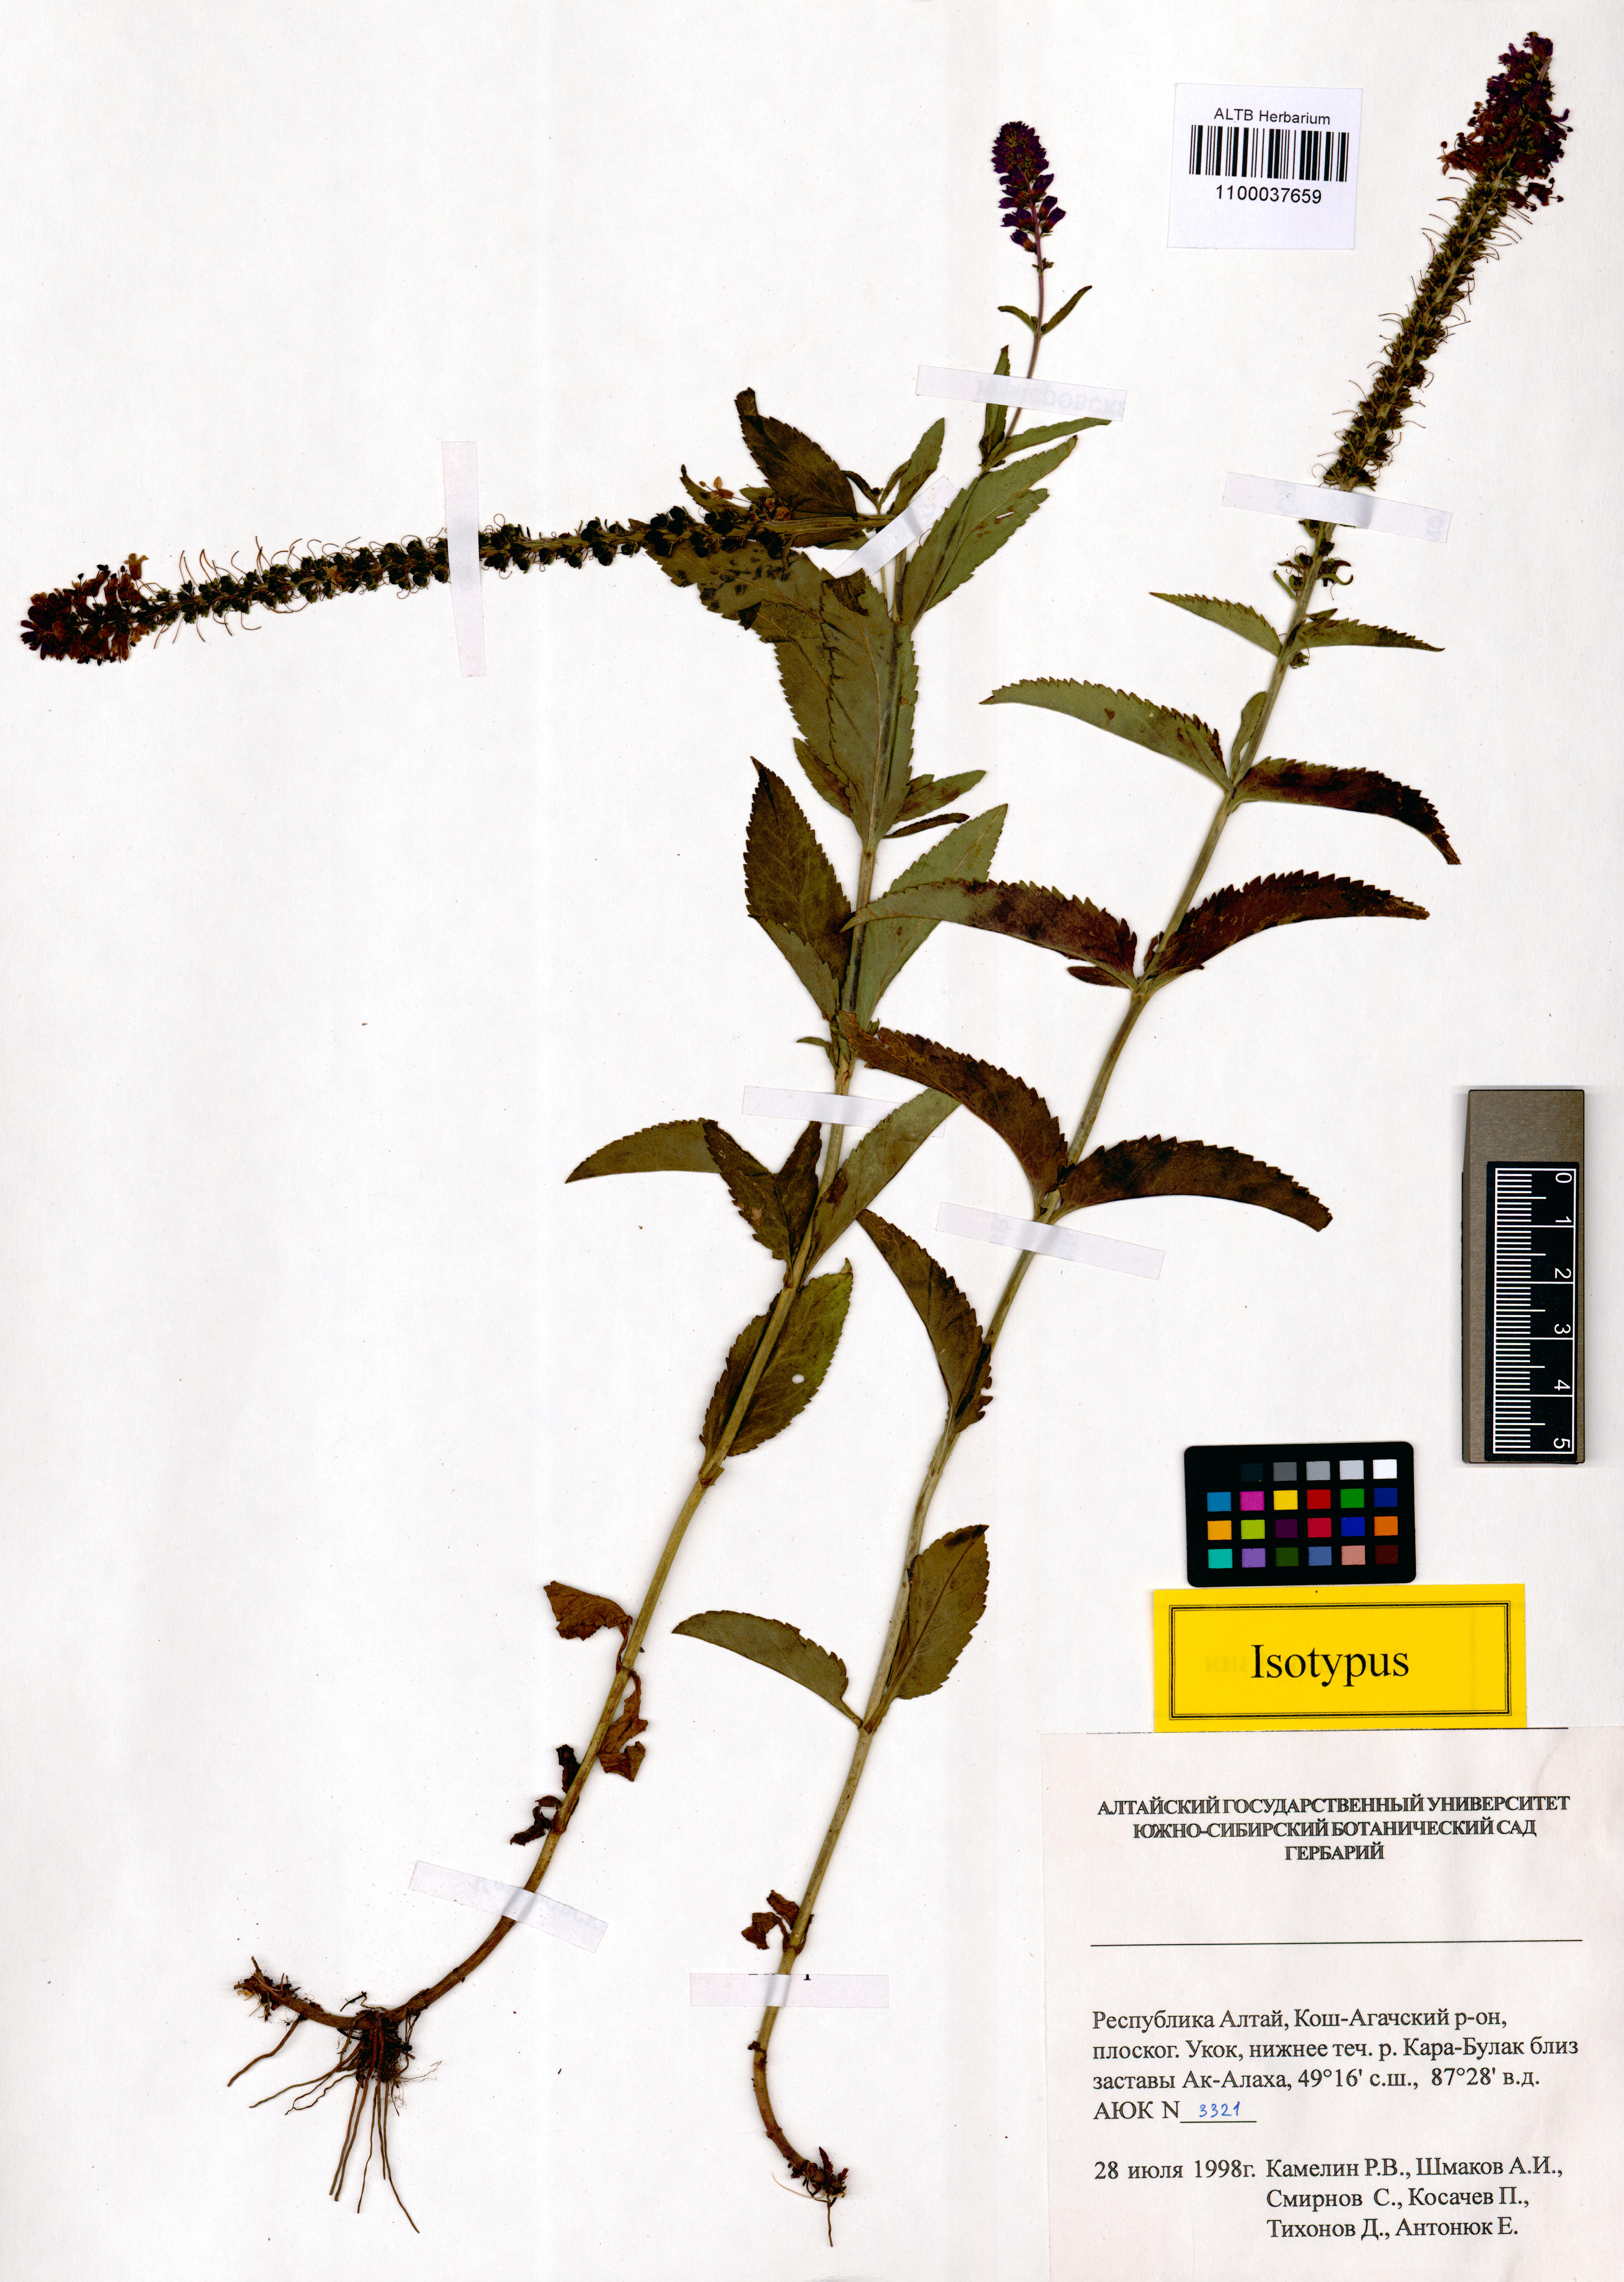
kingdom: Plantae
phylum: Tracheophyta
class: Magnoliopsida
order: Lamiales
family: Plantaginaceae
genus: Veronica
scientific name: Veronica schmakovii
